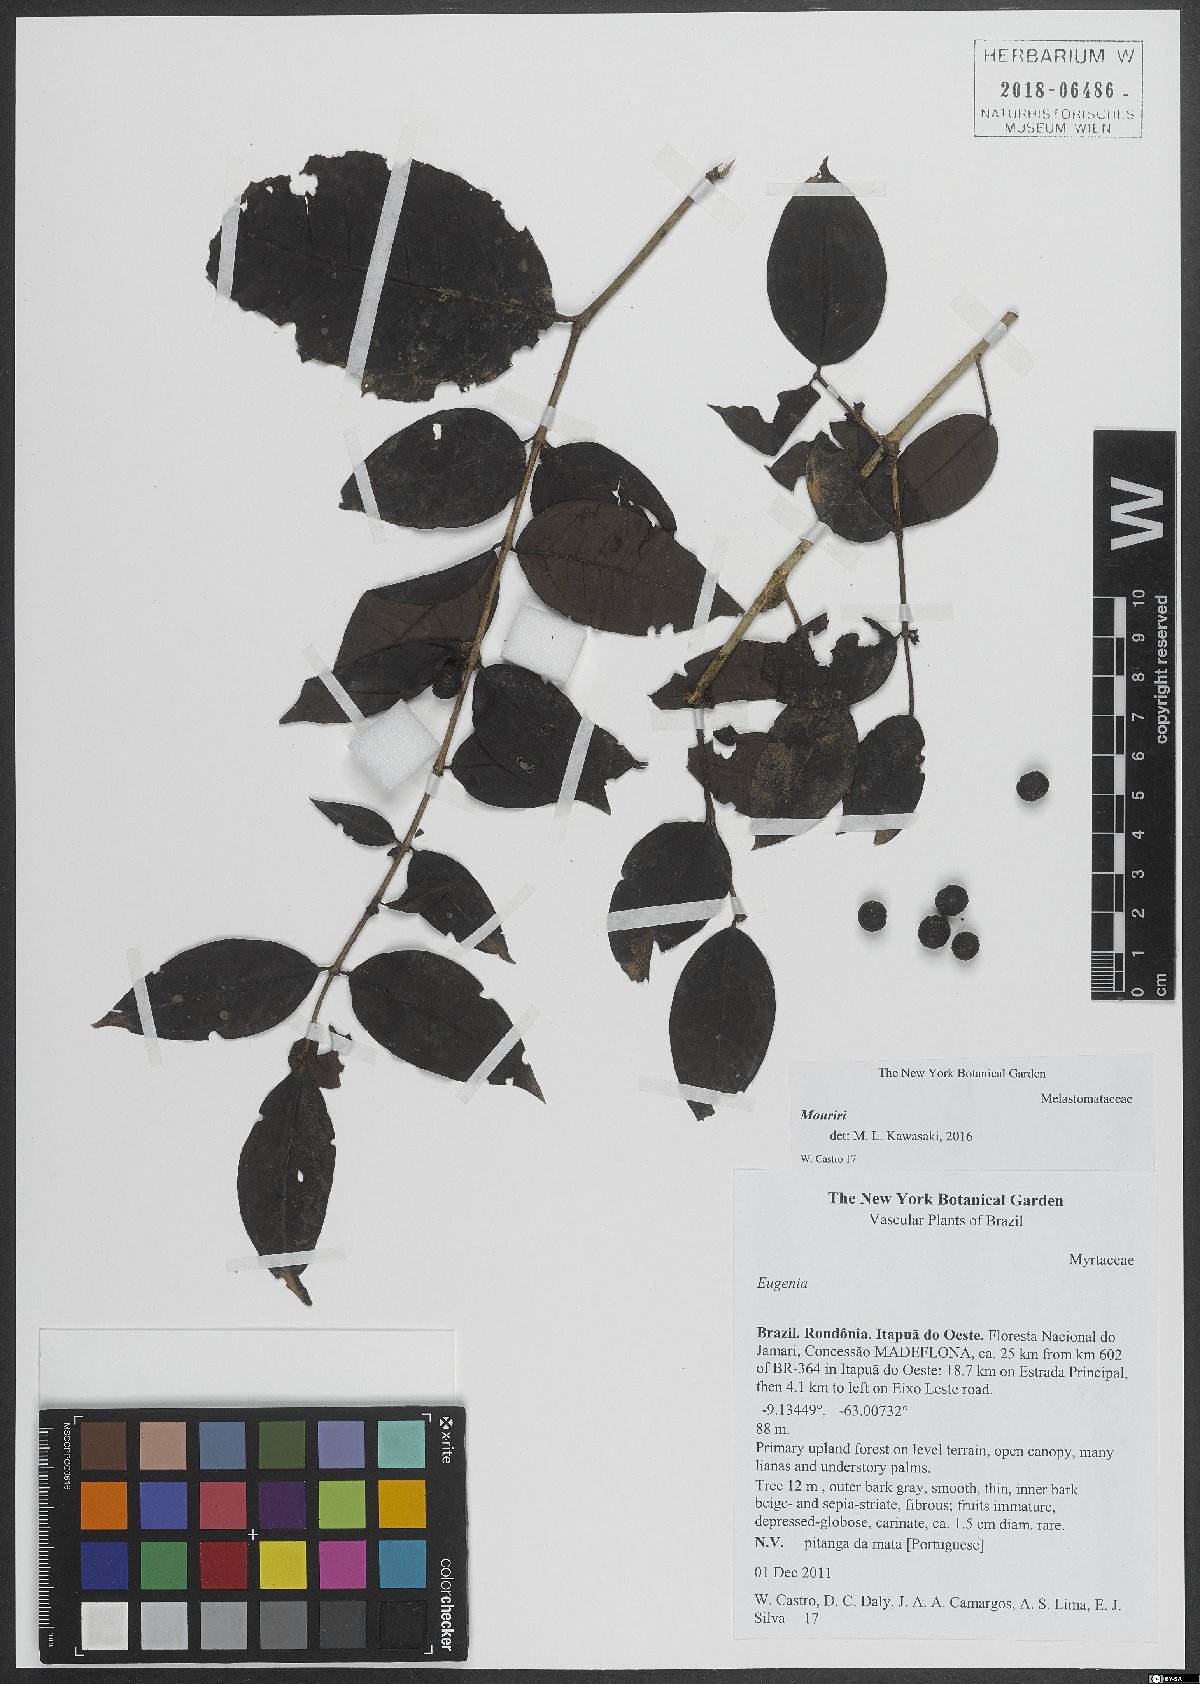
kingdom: Plantae
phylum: Tracheophyta
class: Magnoliopsida
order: Myrtales
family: Melastomataceae
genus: Mouriri
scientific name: Mouriri
